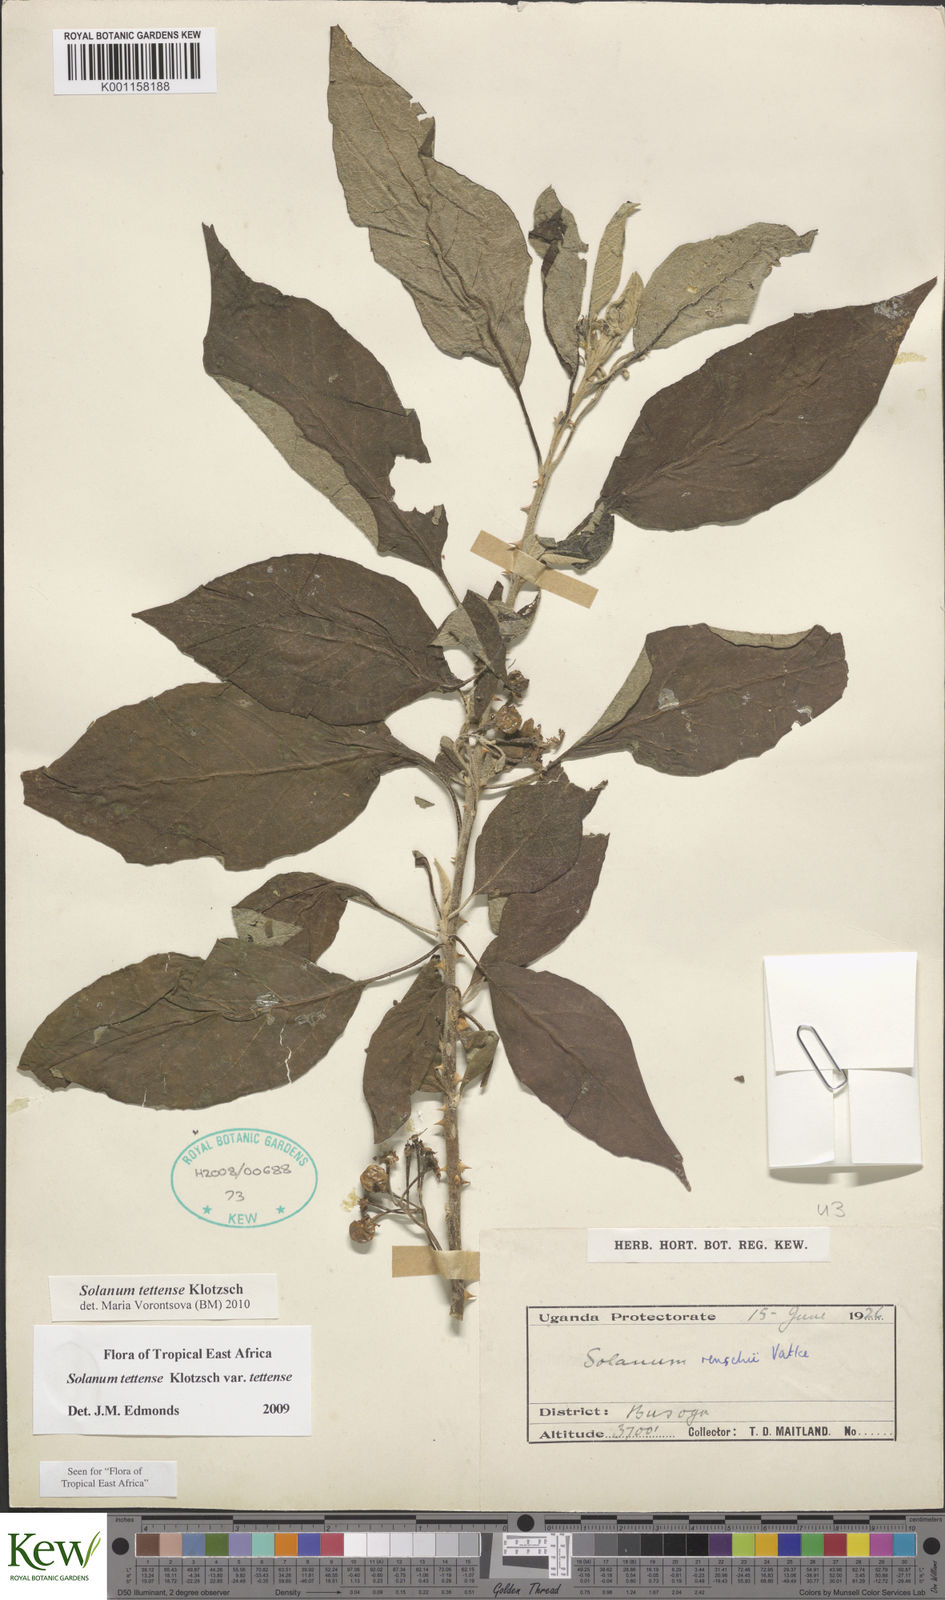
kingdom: Plantae
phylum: Tracheophyta
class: Magnoliopsida
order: Solanales
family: Solanaceae
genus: Solanum
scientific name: Solanum tettense
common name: Mozambique bitter apple
